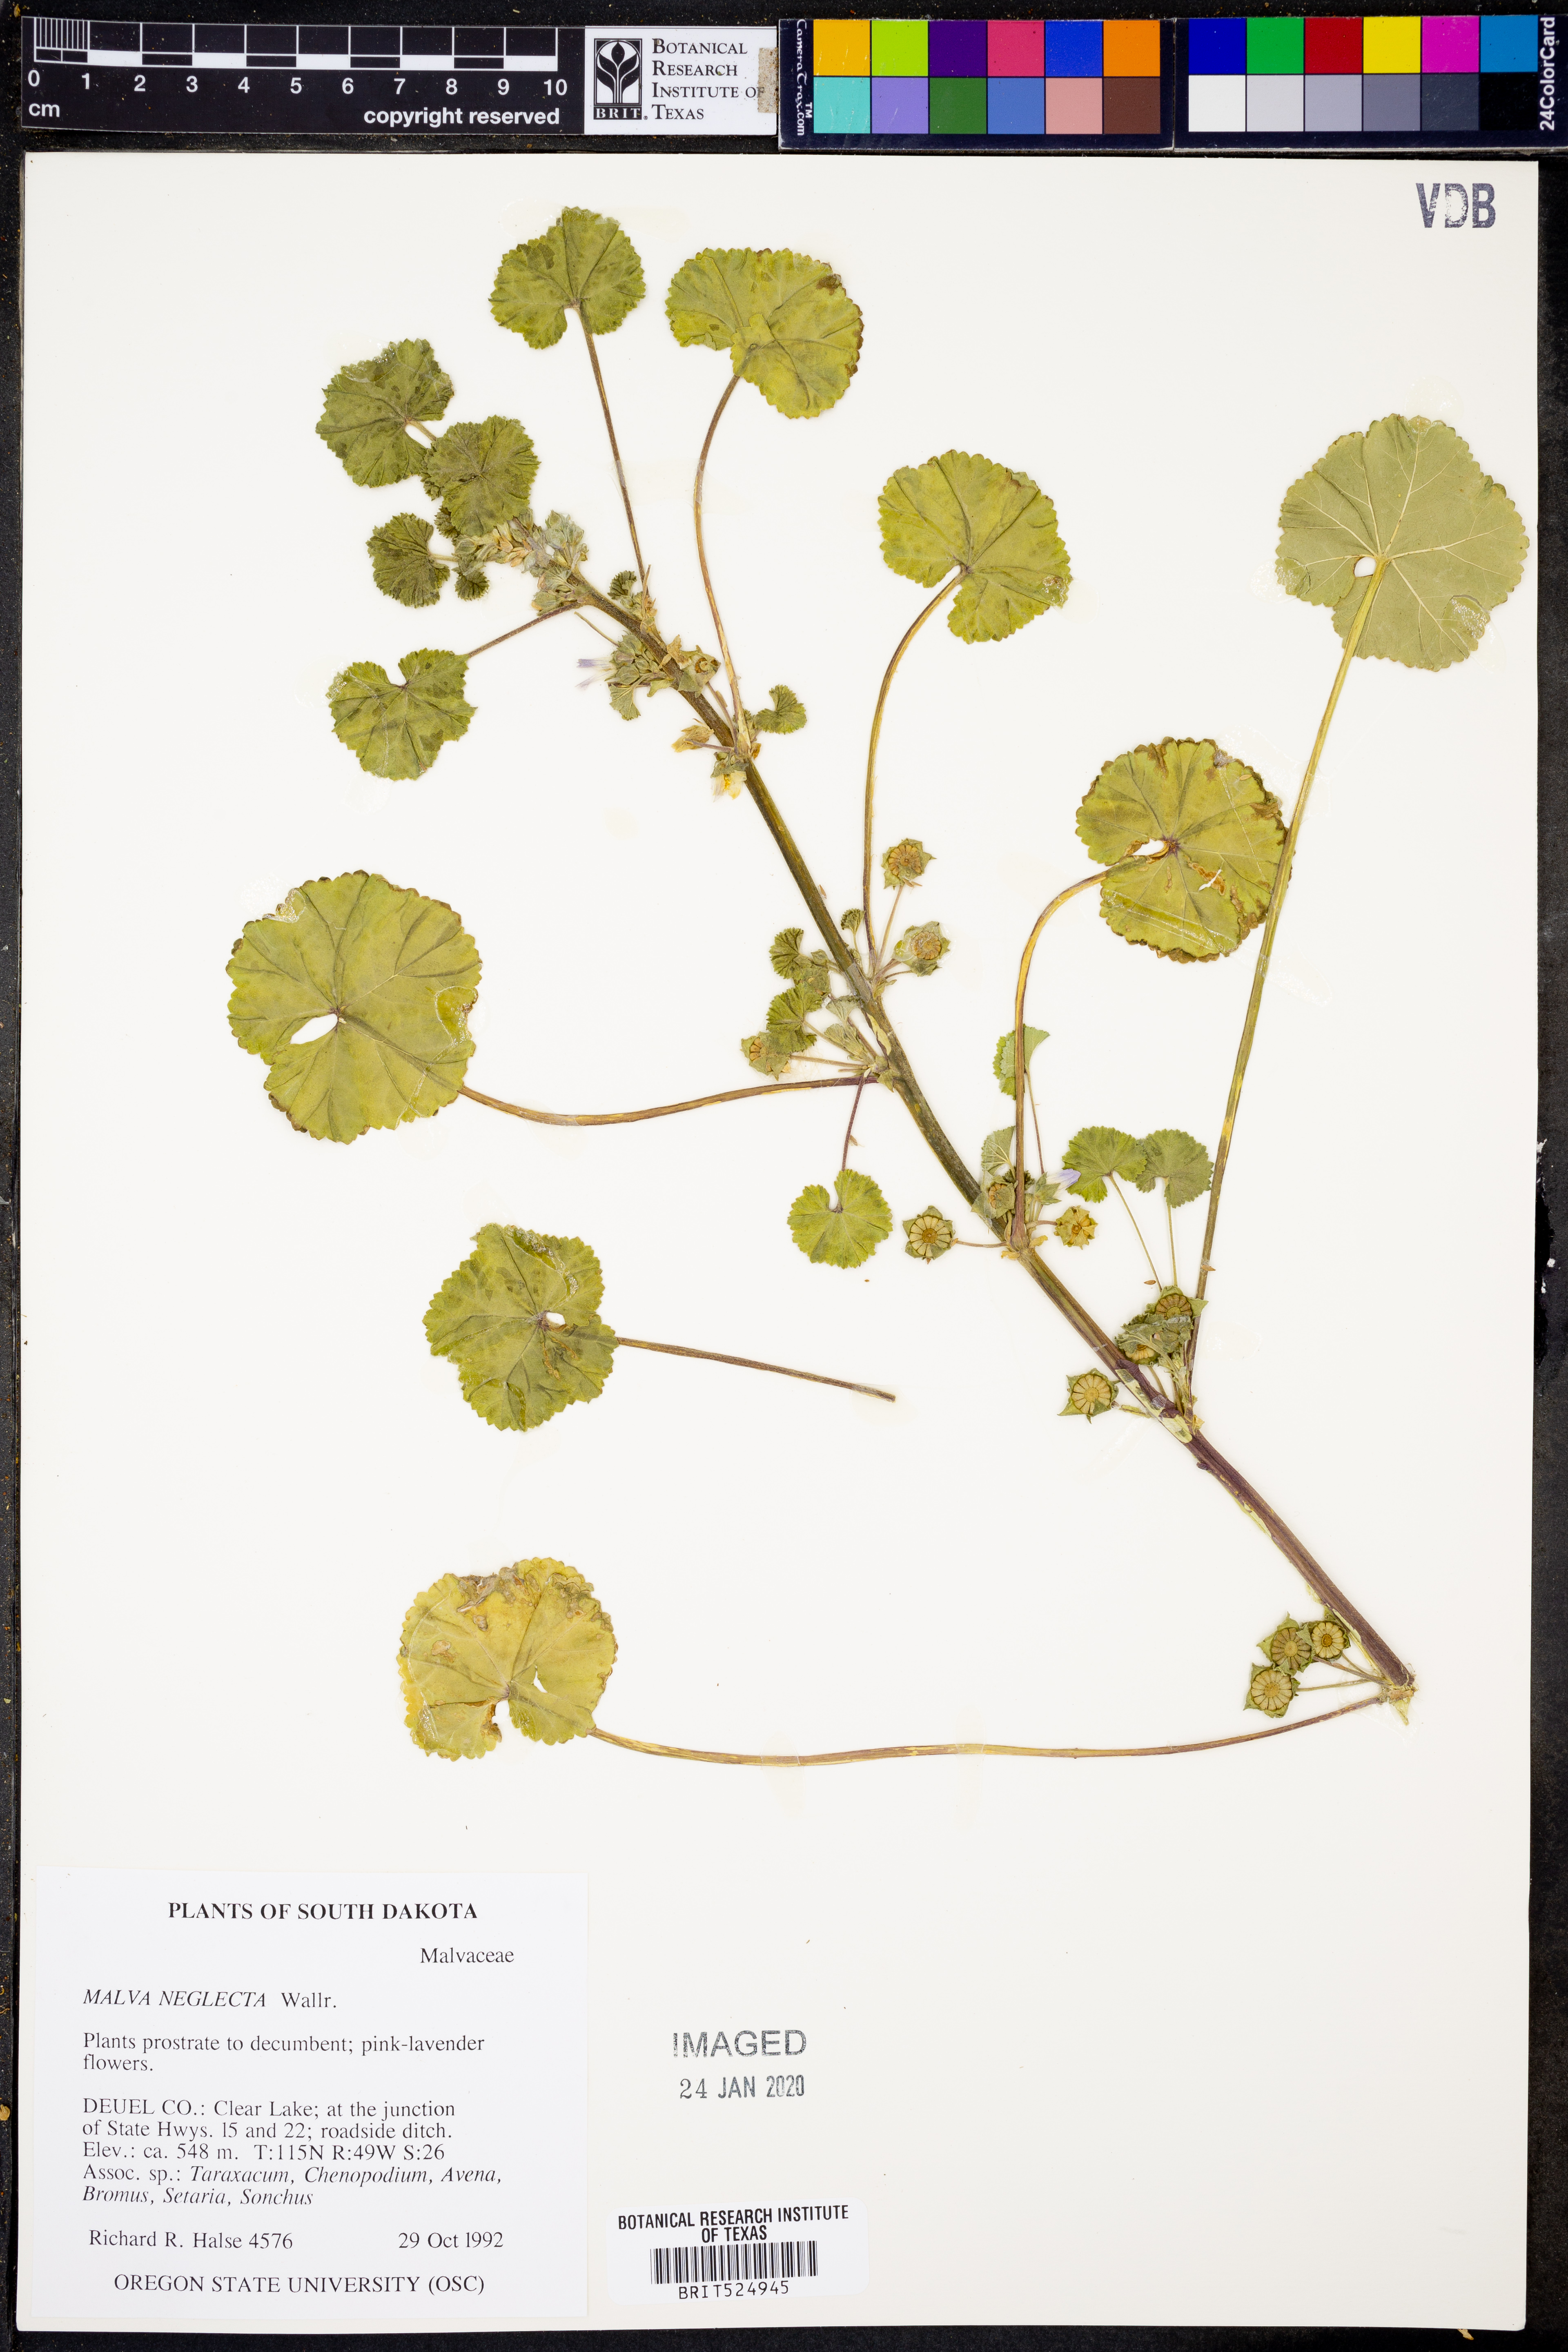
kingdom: Plantae
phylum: Tracheophyta
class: Magnoliopsida
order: Malvales
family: Malvaceae
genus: Malva
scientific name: Malva neglecta
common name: Common mallow
